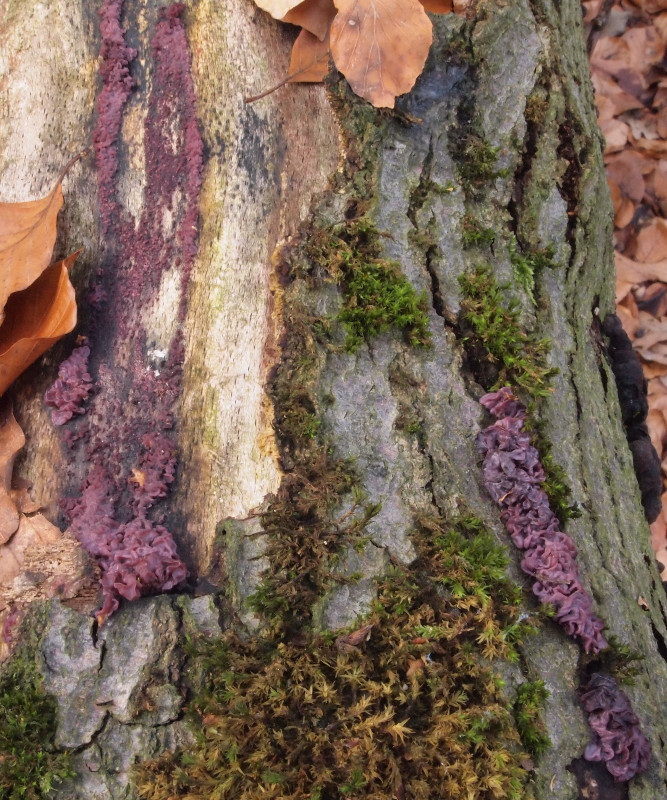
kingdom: Fungi
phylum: Ascomycota
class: Leotiomycetes
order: Helotiales
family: Gelatinodiscaceae
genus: Ascocoryne
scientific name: Ascocoryne sarcoides
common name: rødlilla sejskive
